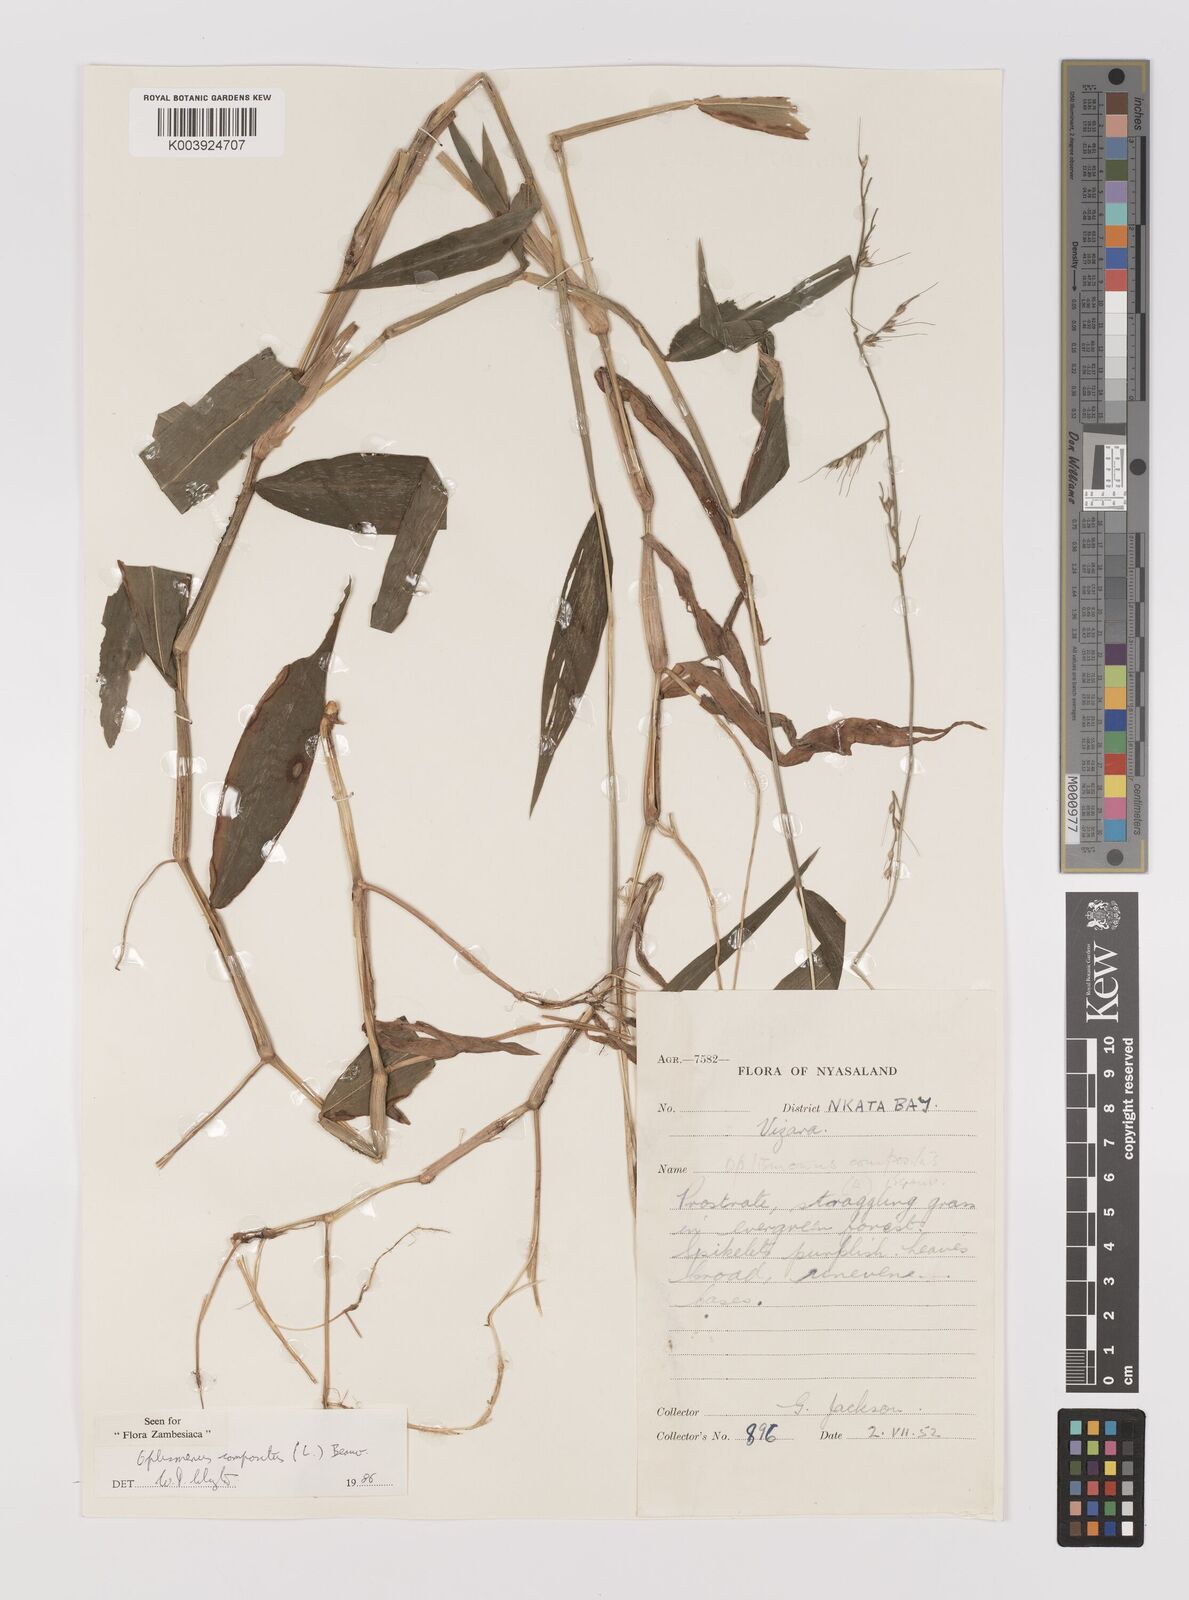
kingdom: Plantae
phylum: Tracheophyta
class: Liliopsida
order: Poales
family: Poaceae
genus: Oplismenus
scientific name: Oplismenus compositus
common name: Running mountain grass
